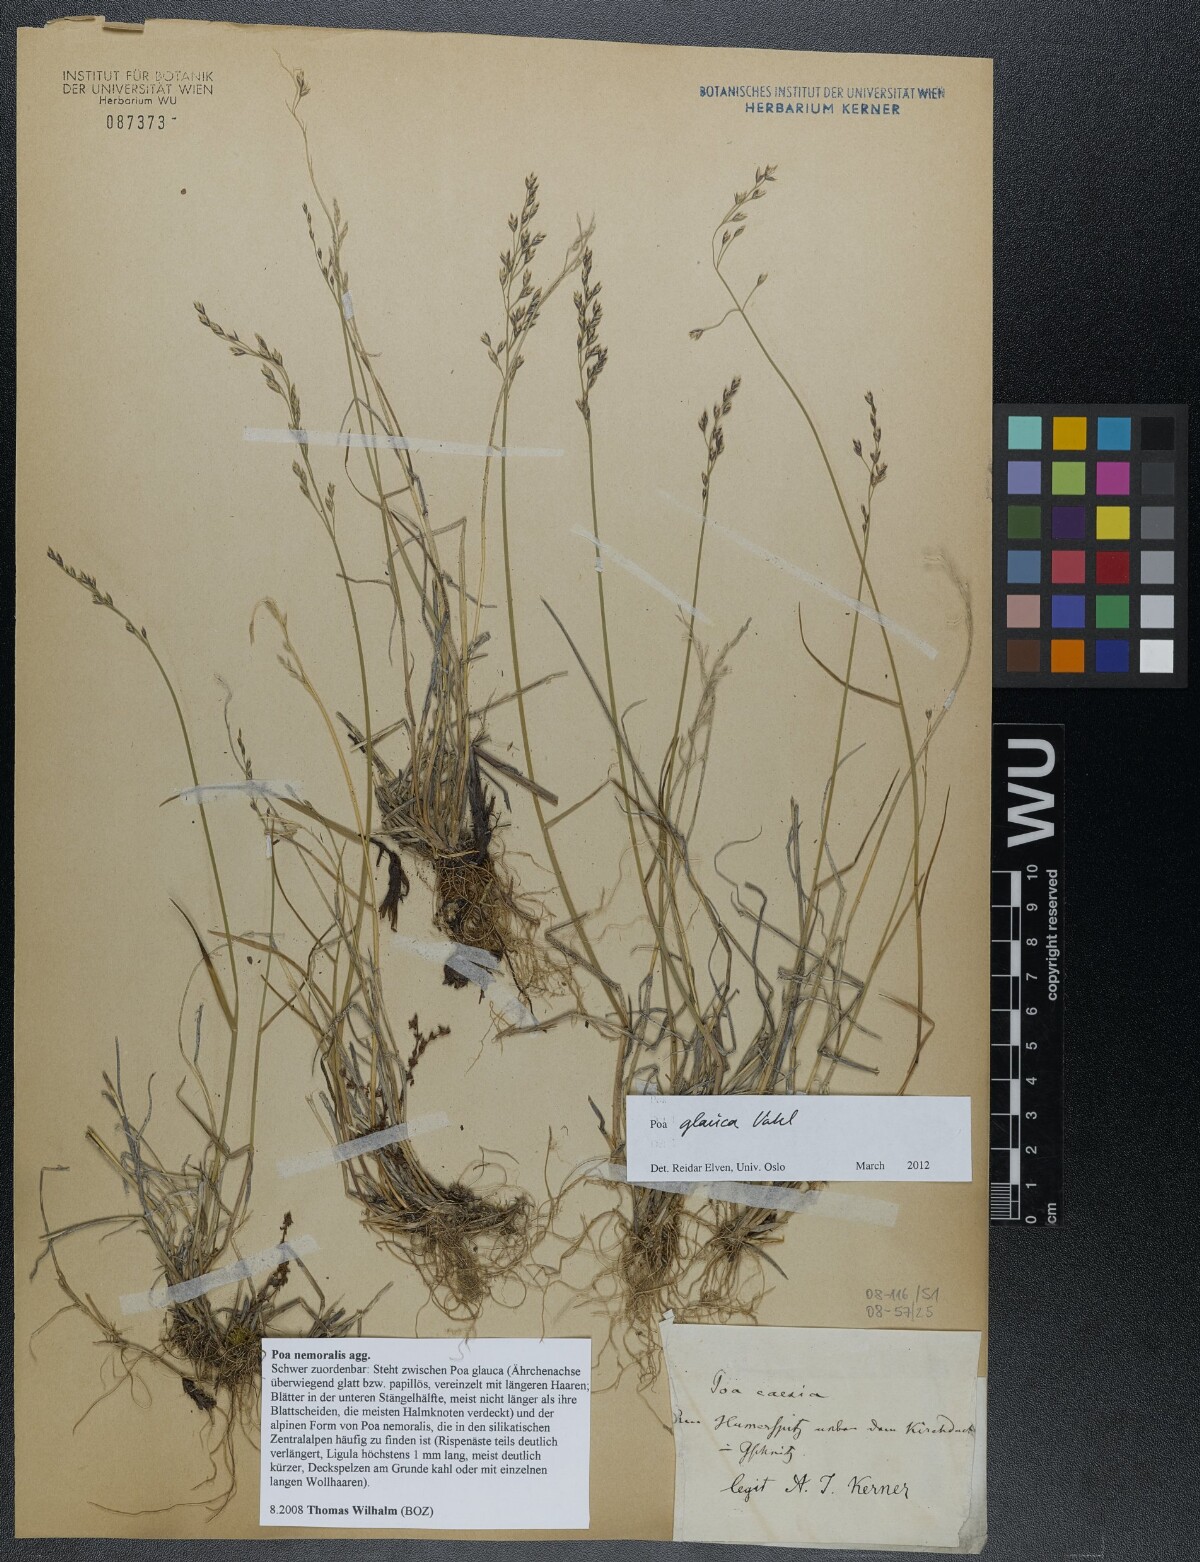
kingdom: Plantae
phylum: Tracheophyta
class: Liliopsida
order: Poales
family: Poaceae
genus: Poa
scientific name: Poa glauca
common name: Glaucous bluegrass
